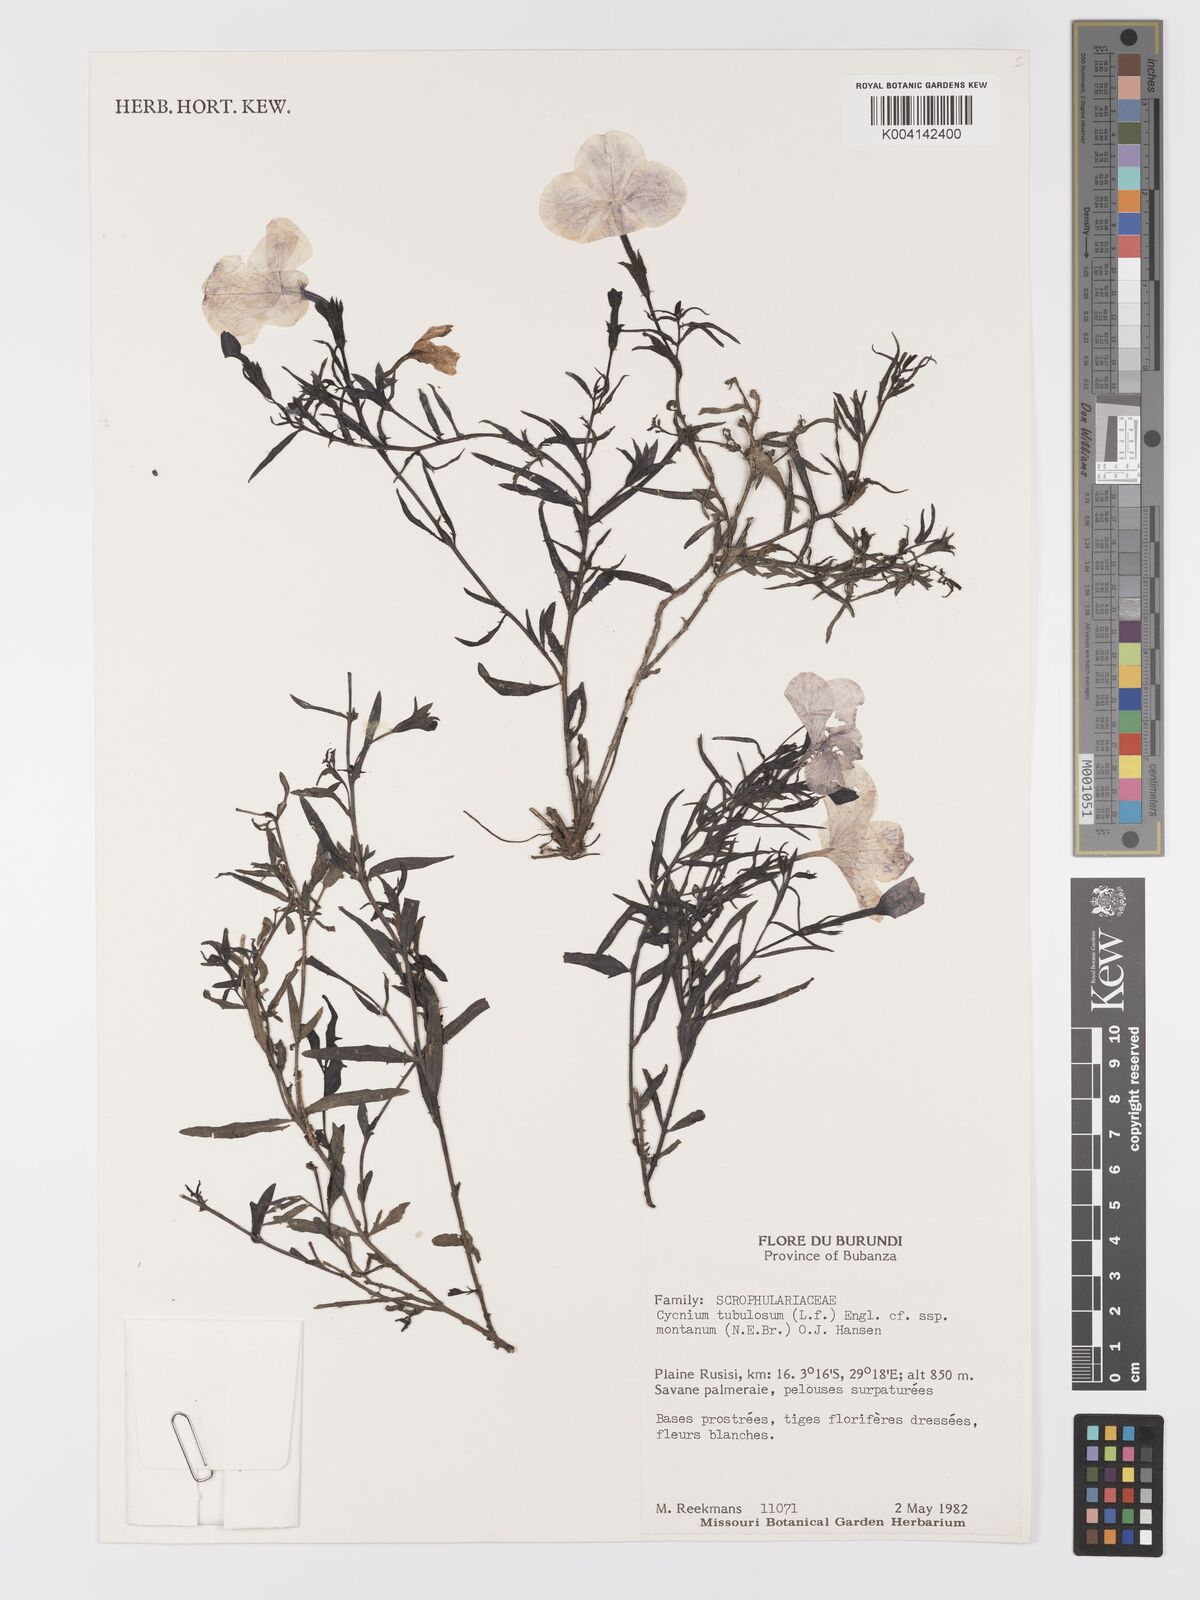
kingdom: Plantae
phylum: Tracheophyta
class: Magnoliopsida
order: Lamiales
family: Orobanchaceae
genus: Cycnium
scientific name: Cycnium tubulosum
